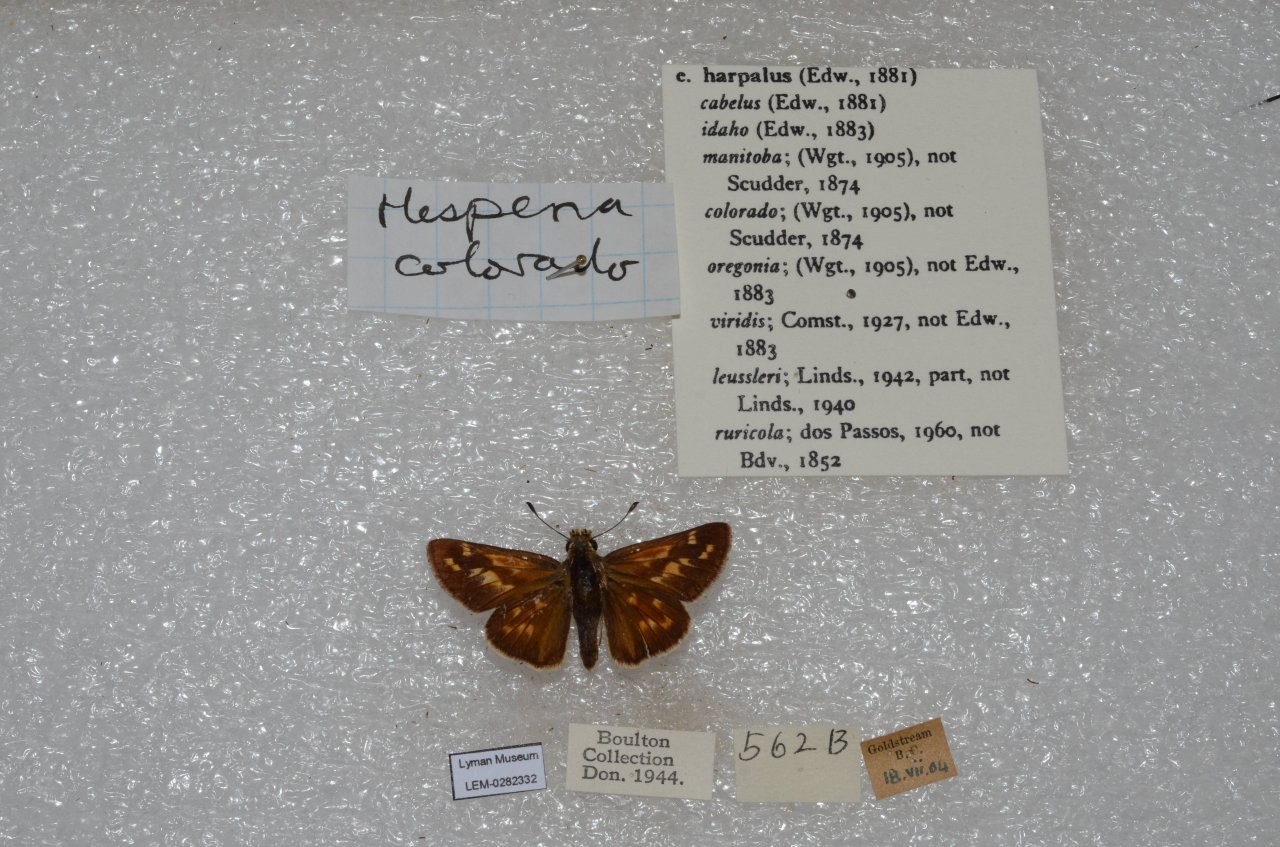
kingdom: Animalia
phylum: Arthropoda
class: Insecta
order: Lepidoptera
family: Hesperiidae
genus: Hesperia
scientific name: Hesperia comma
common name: Western Branded Skipper
